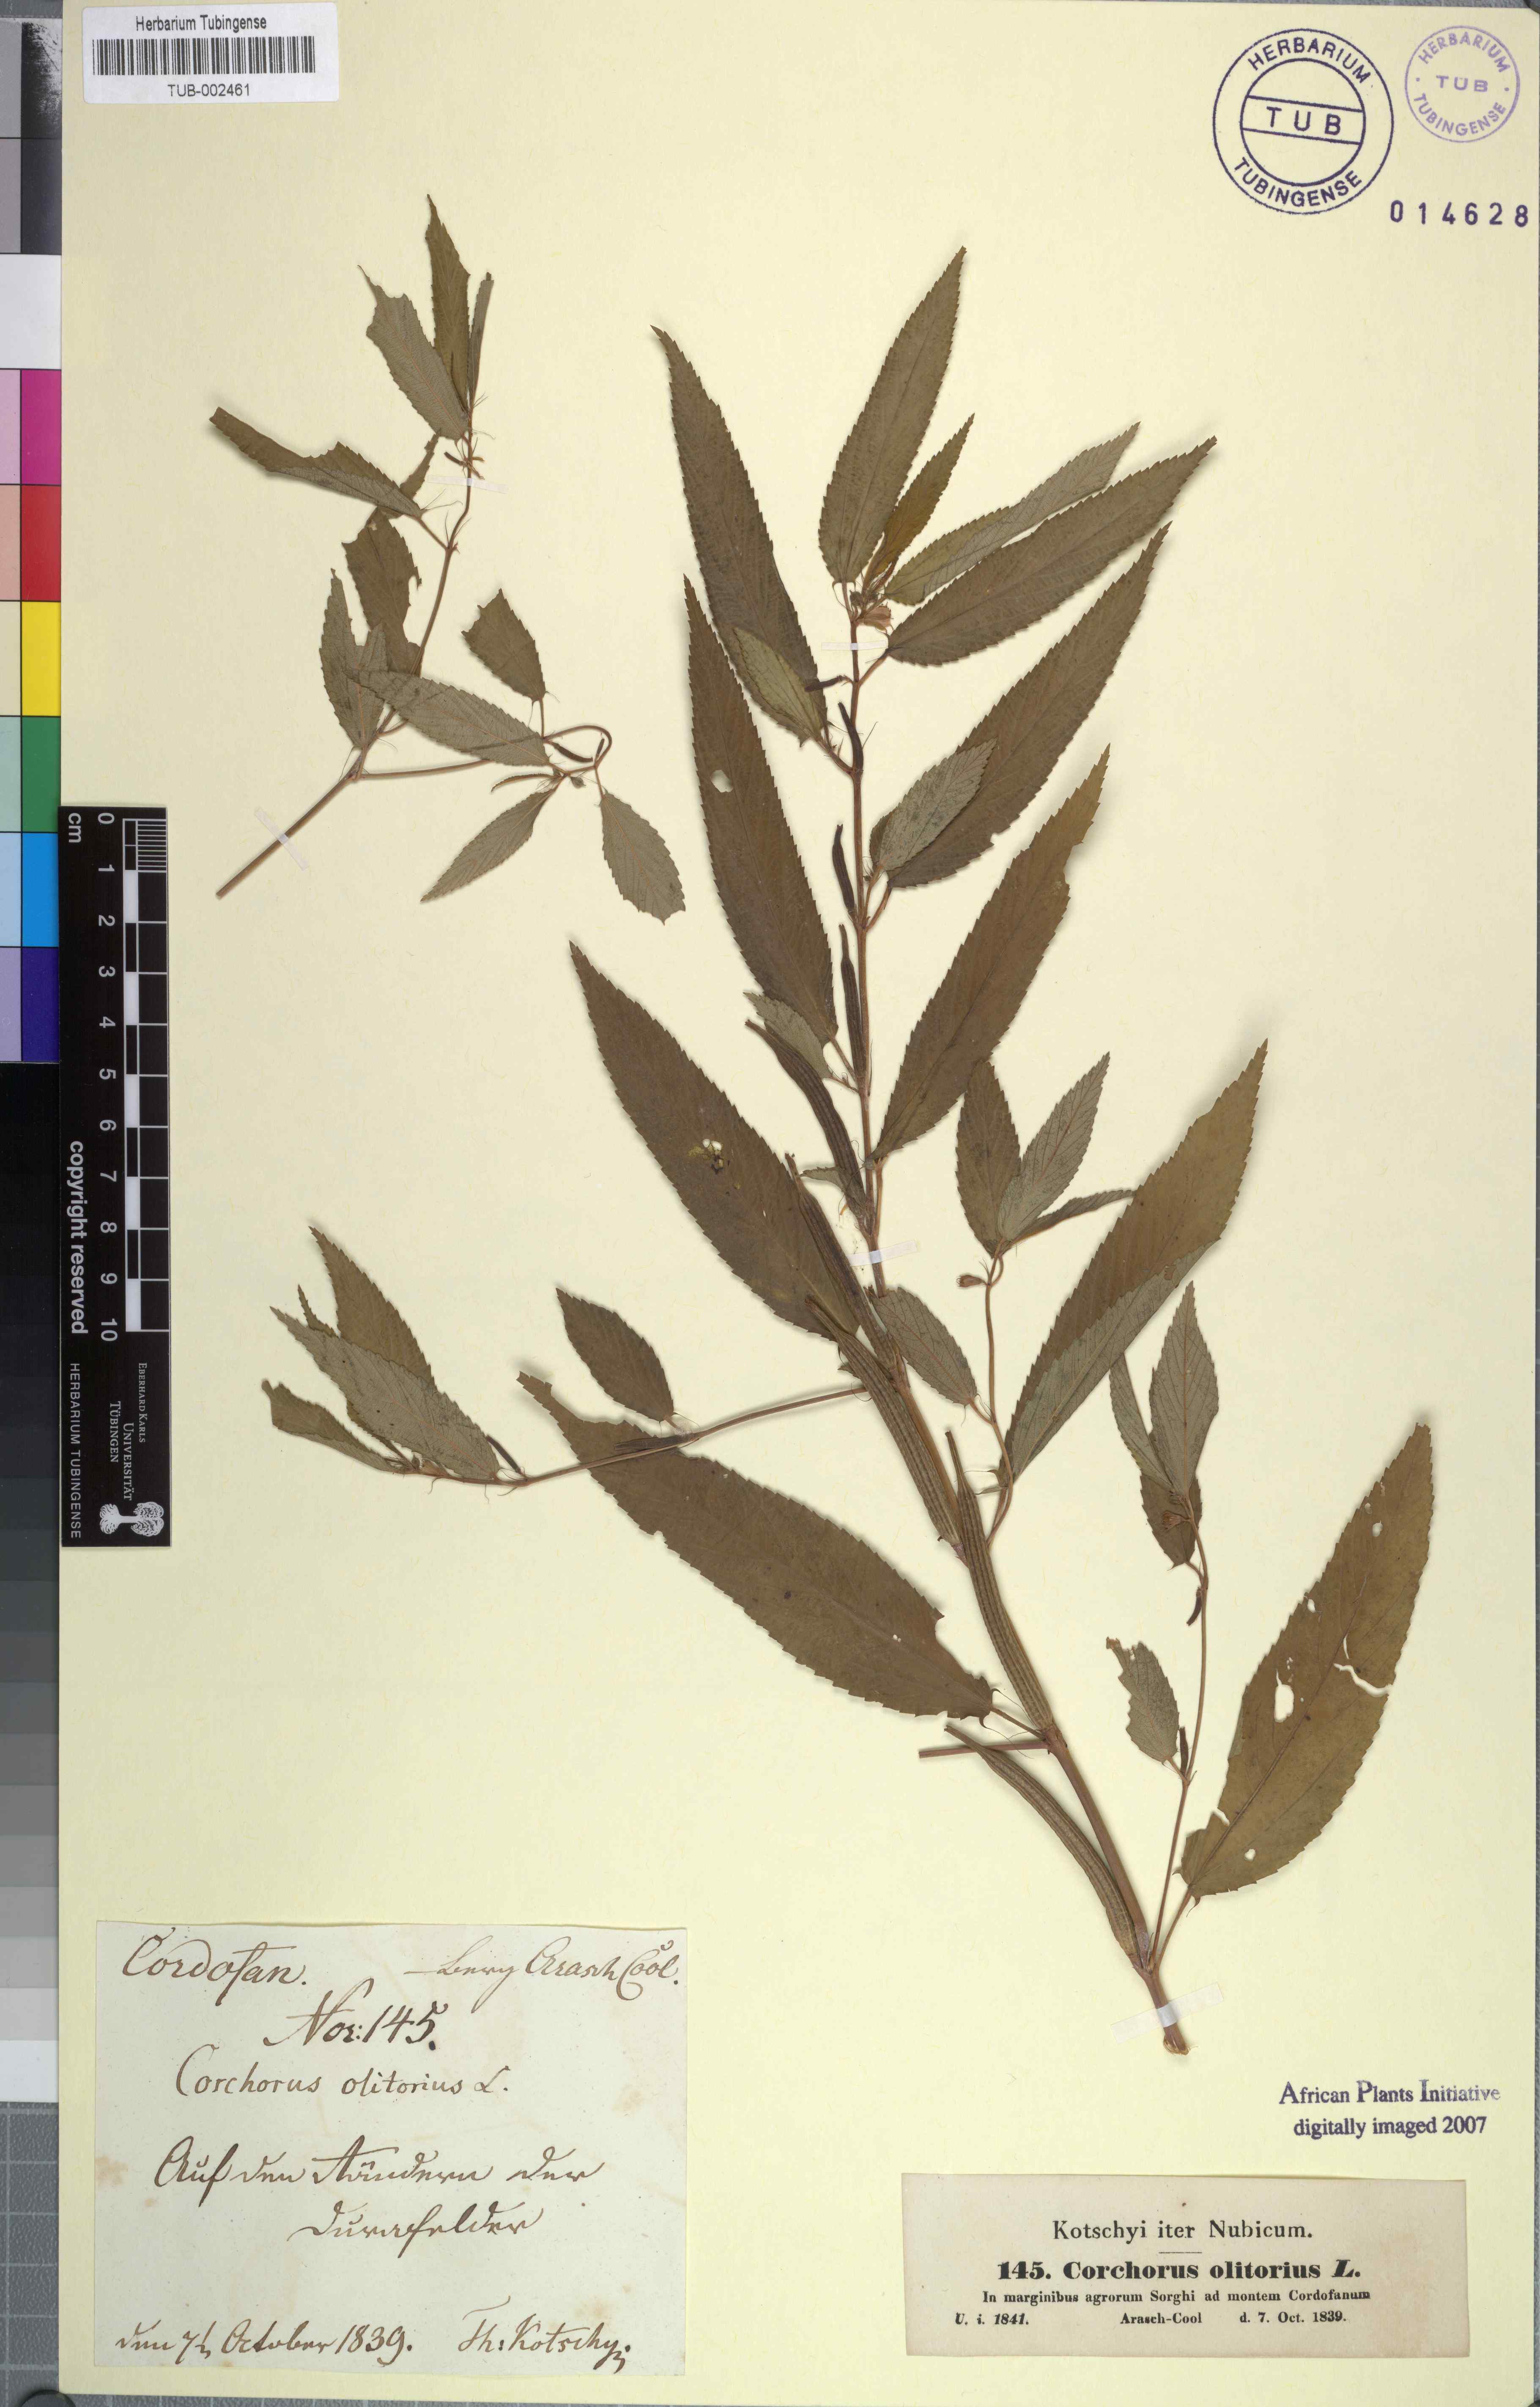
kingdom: Plantae
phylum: Tracheophyta
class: Magnoliopsida
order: Malvales
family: Malvaceae
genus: Corchorus
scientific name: Corchorus olitorius
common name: Tossa jute
